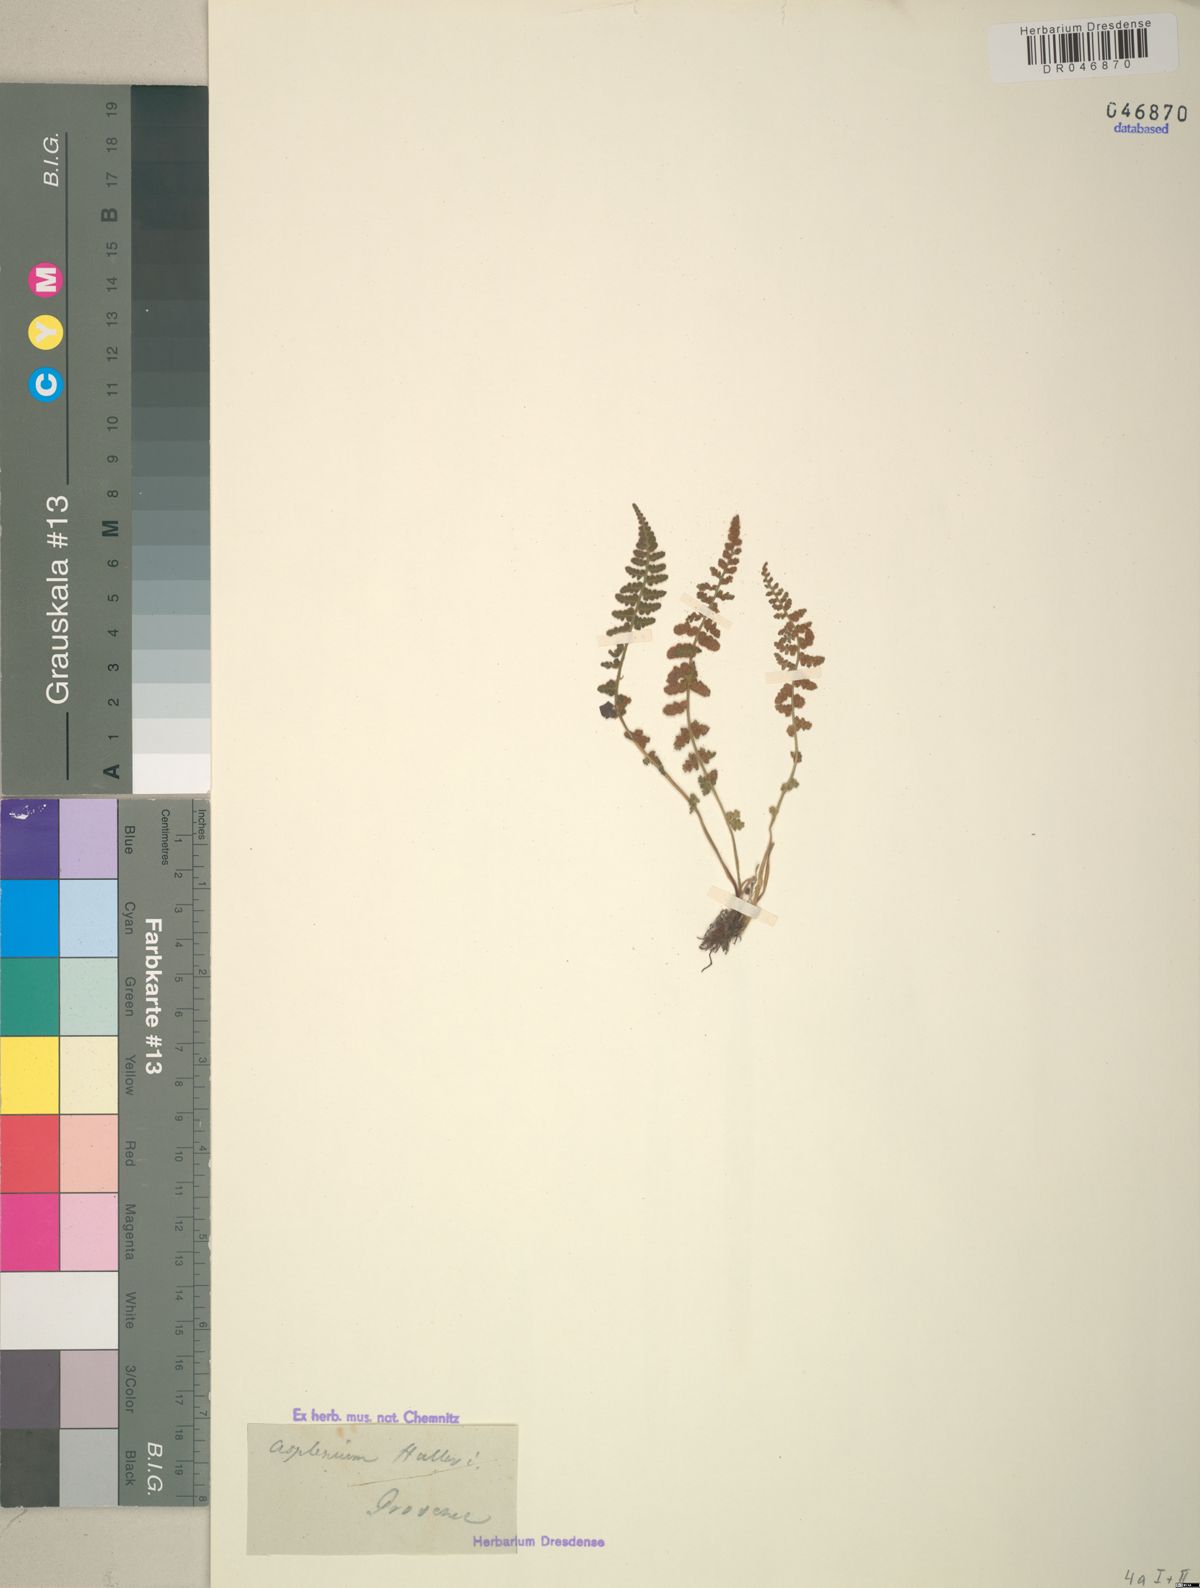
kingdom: Plantae
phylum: Tracheophyta
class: Polypodiopsida
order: Polypodiales
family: Aspleniaceae
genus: Asplenium
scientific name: Asplenium fontanum
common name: Fountain spleenwort
